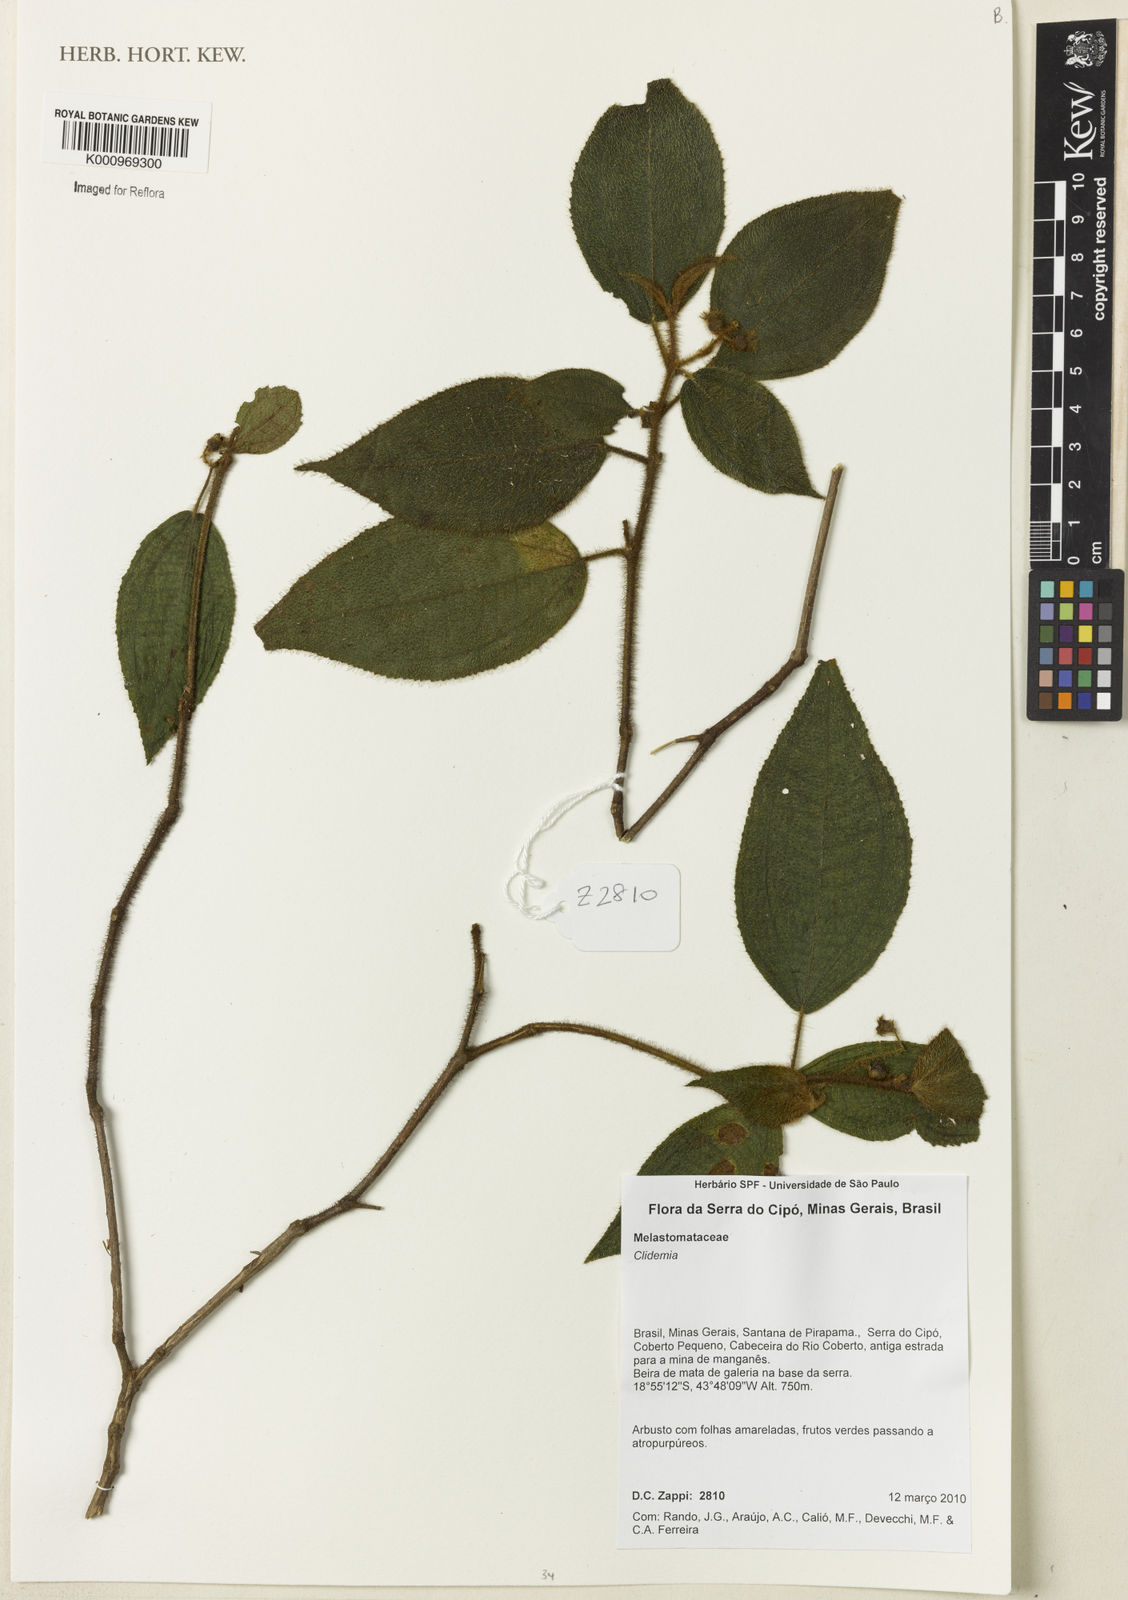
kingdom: Plantae
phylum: Tracheophyta
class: Magnoliopsida
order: Myrtales
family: Melastomataceae
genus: Miconia
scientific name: Miconia
